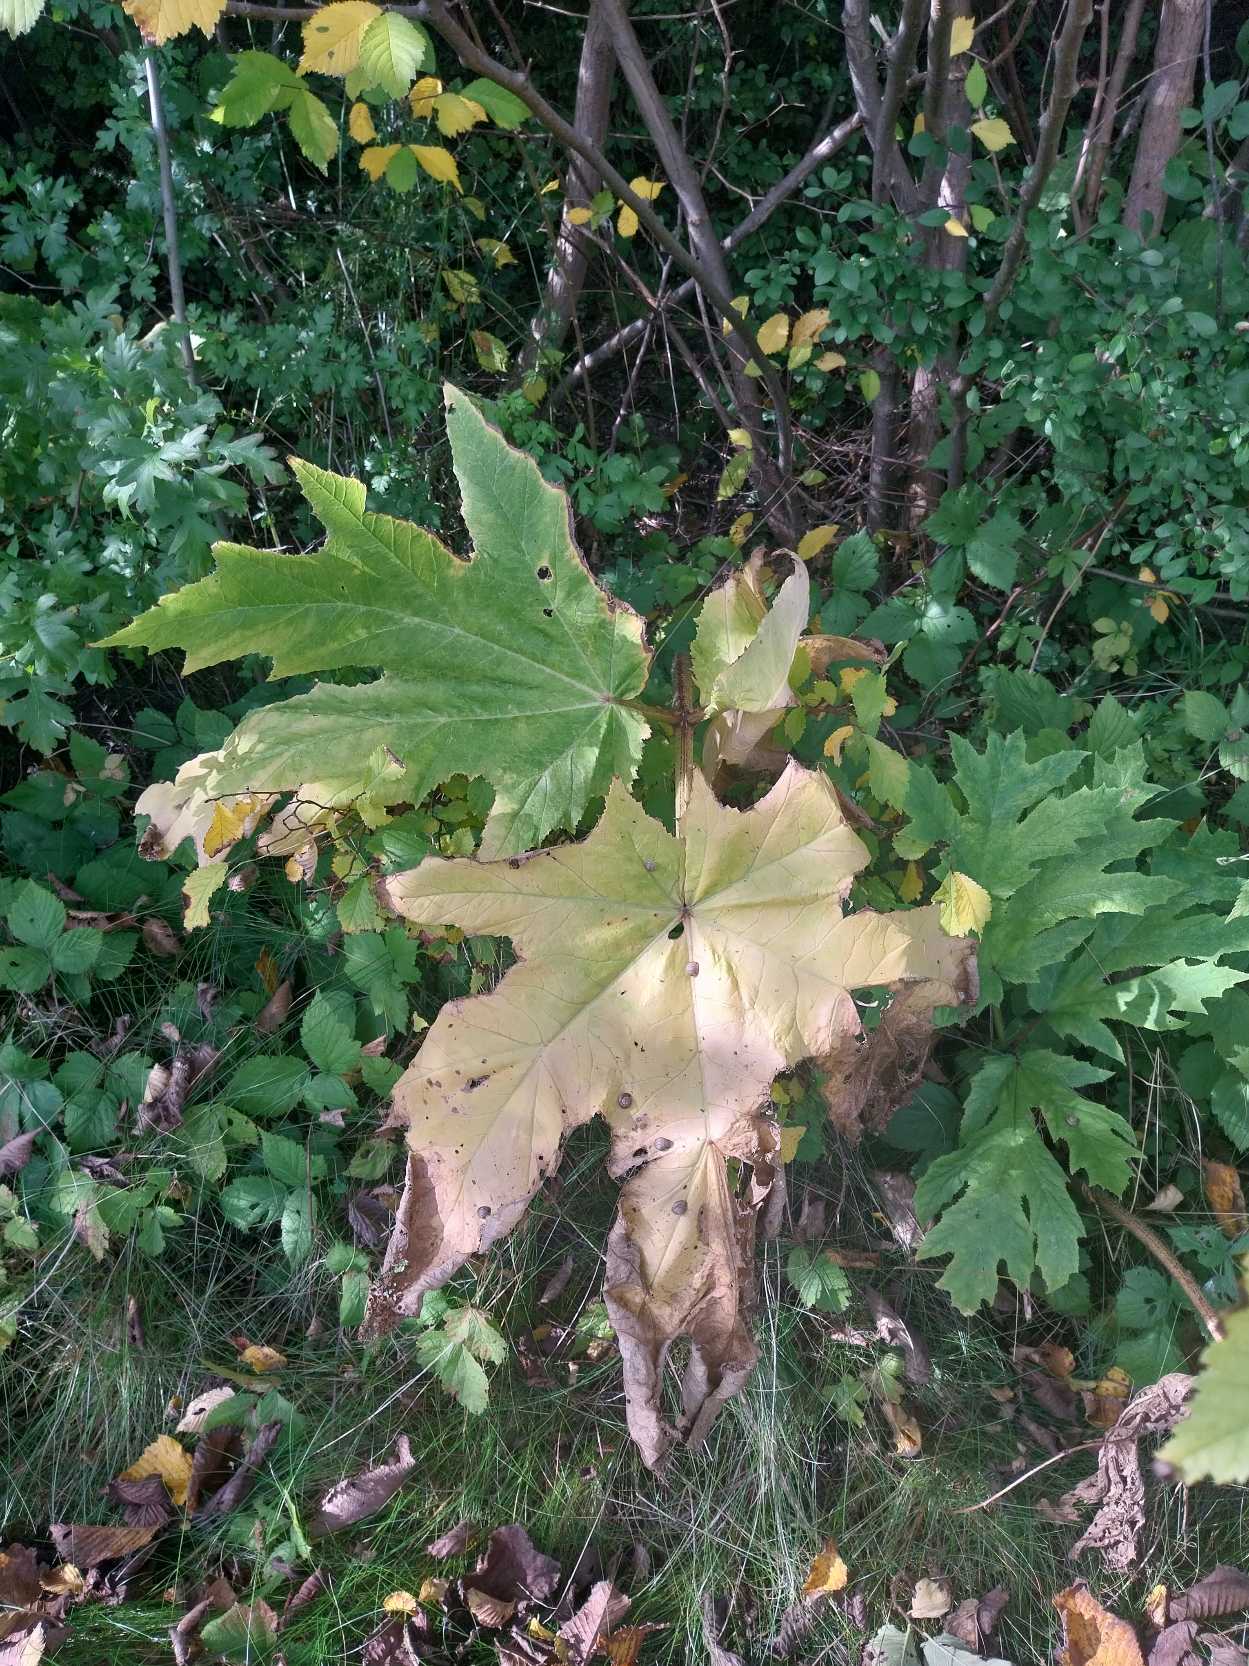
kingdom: Plantae
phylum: Tracheophyta
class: Magnoliopsida
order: Apiales
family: Apiaceae
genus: Heracleum
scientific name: Heracleum mantegazzianum
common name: Kæmpe-bjørneklo
